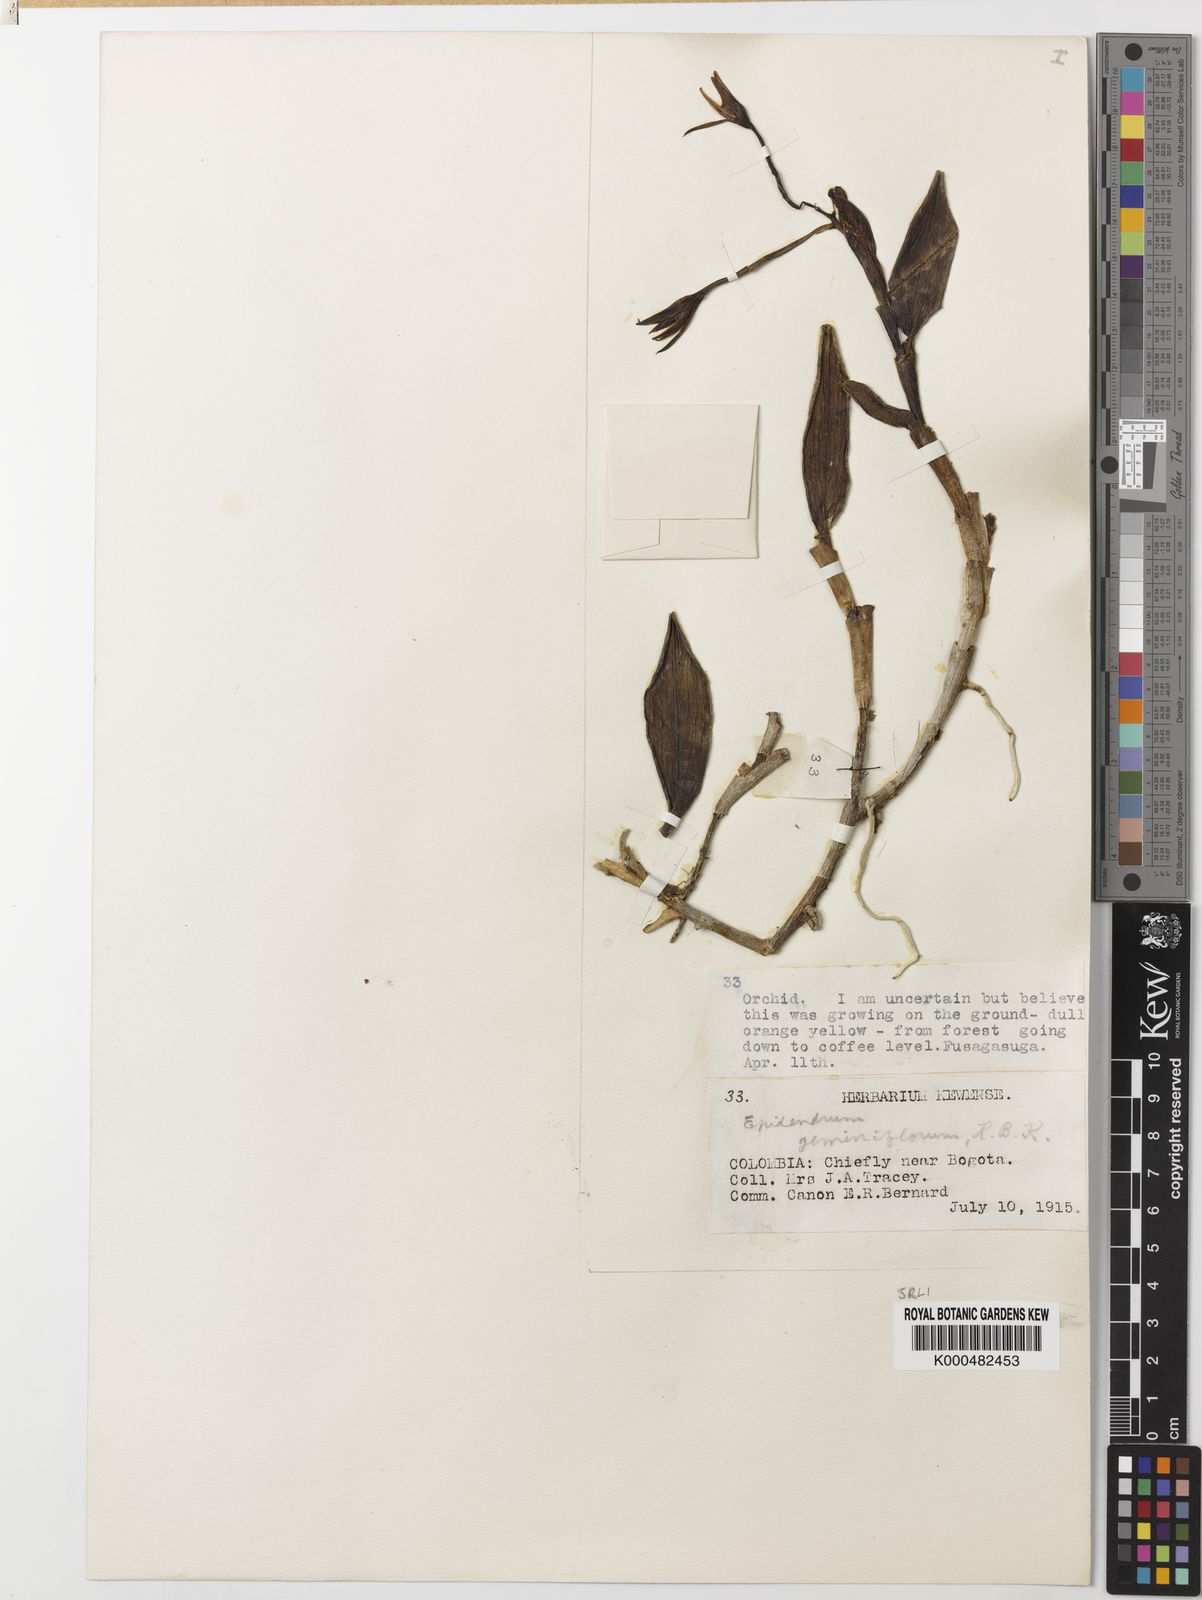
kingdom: Plantae
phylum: Tracheophyta
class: Liliopsida
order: Asparagales
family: Orchidaceae
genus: Epidendrum
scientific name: Epidendrum geminiflorum
